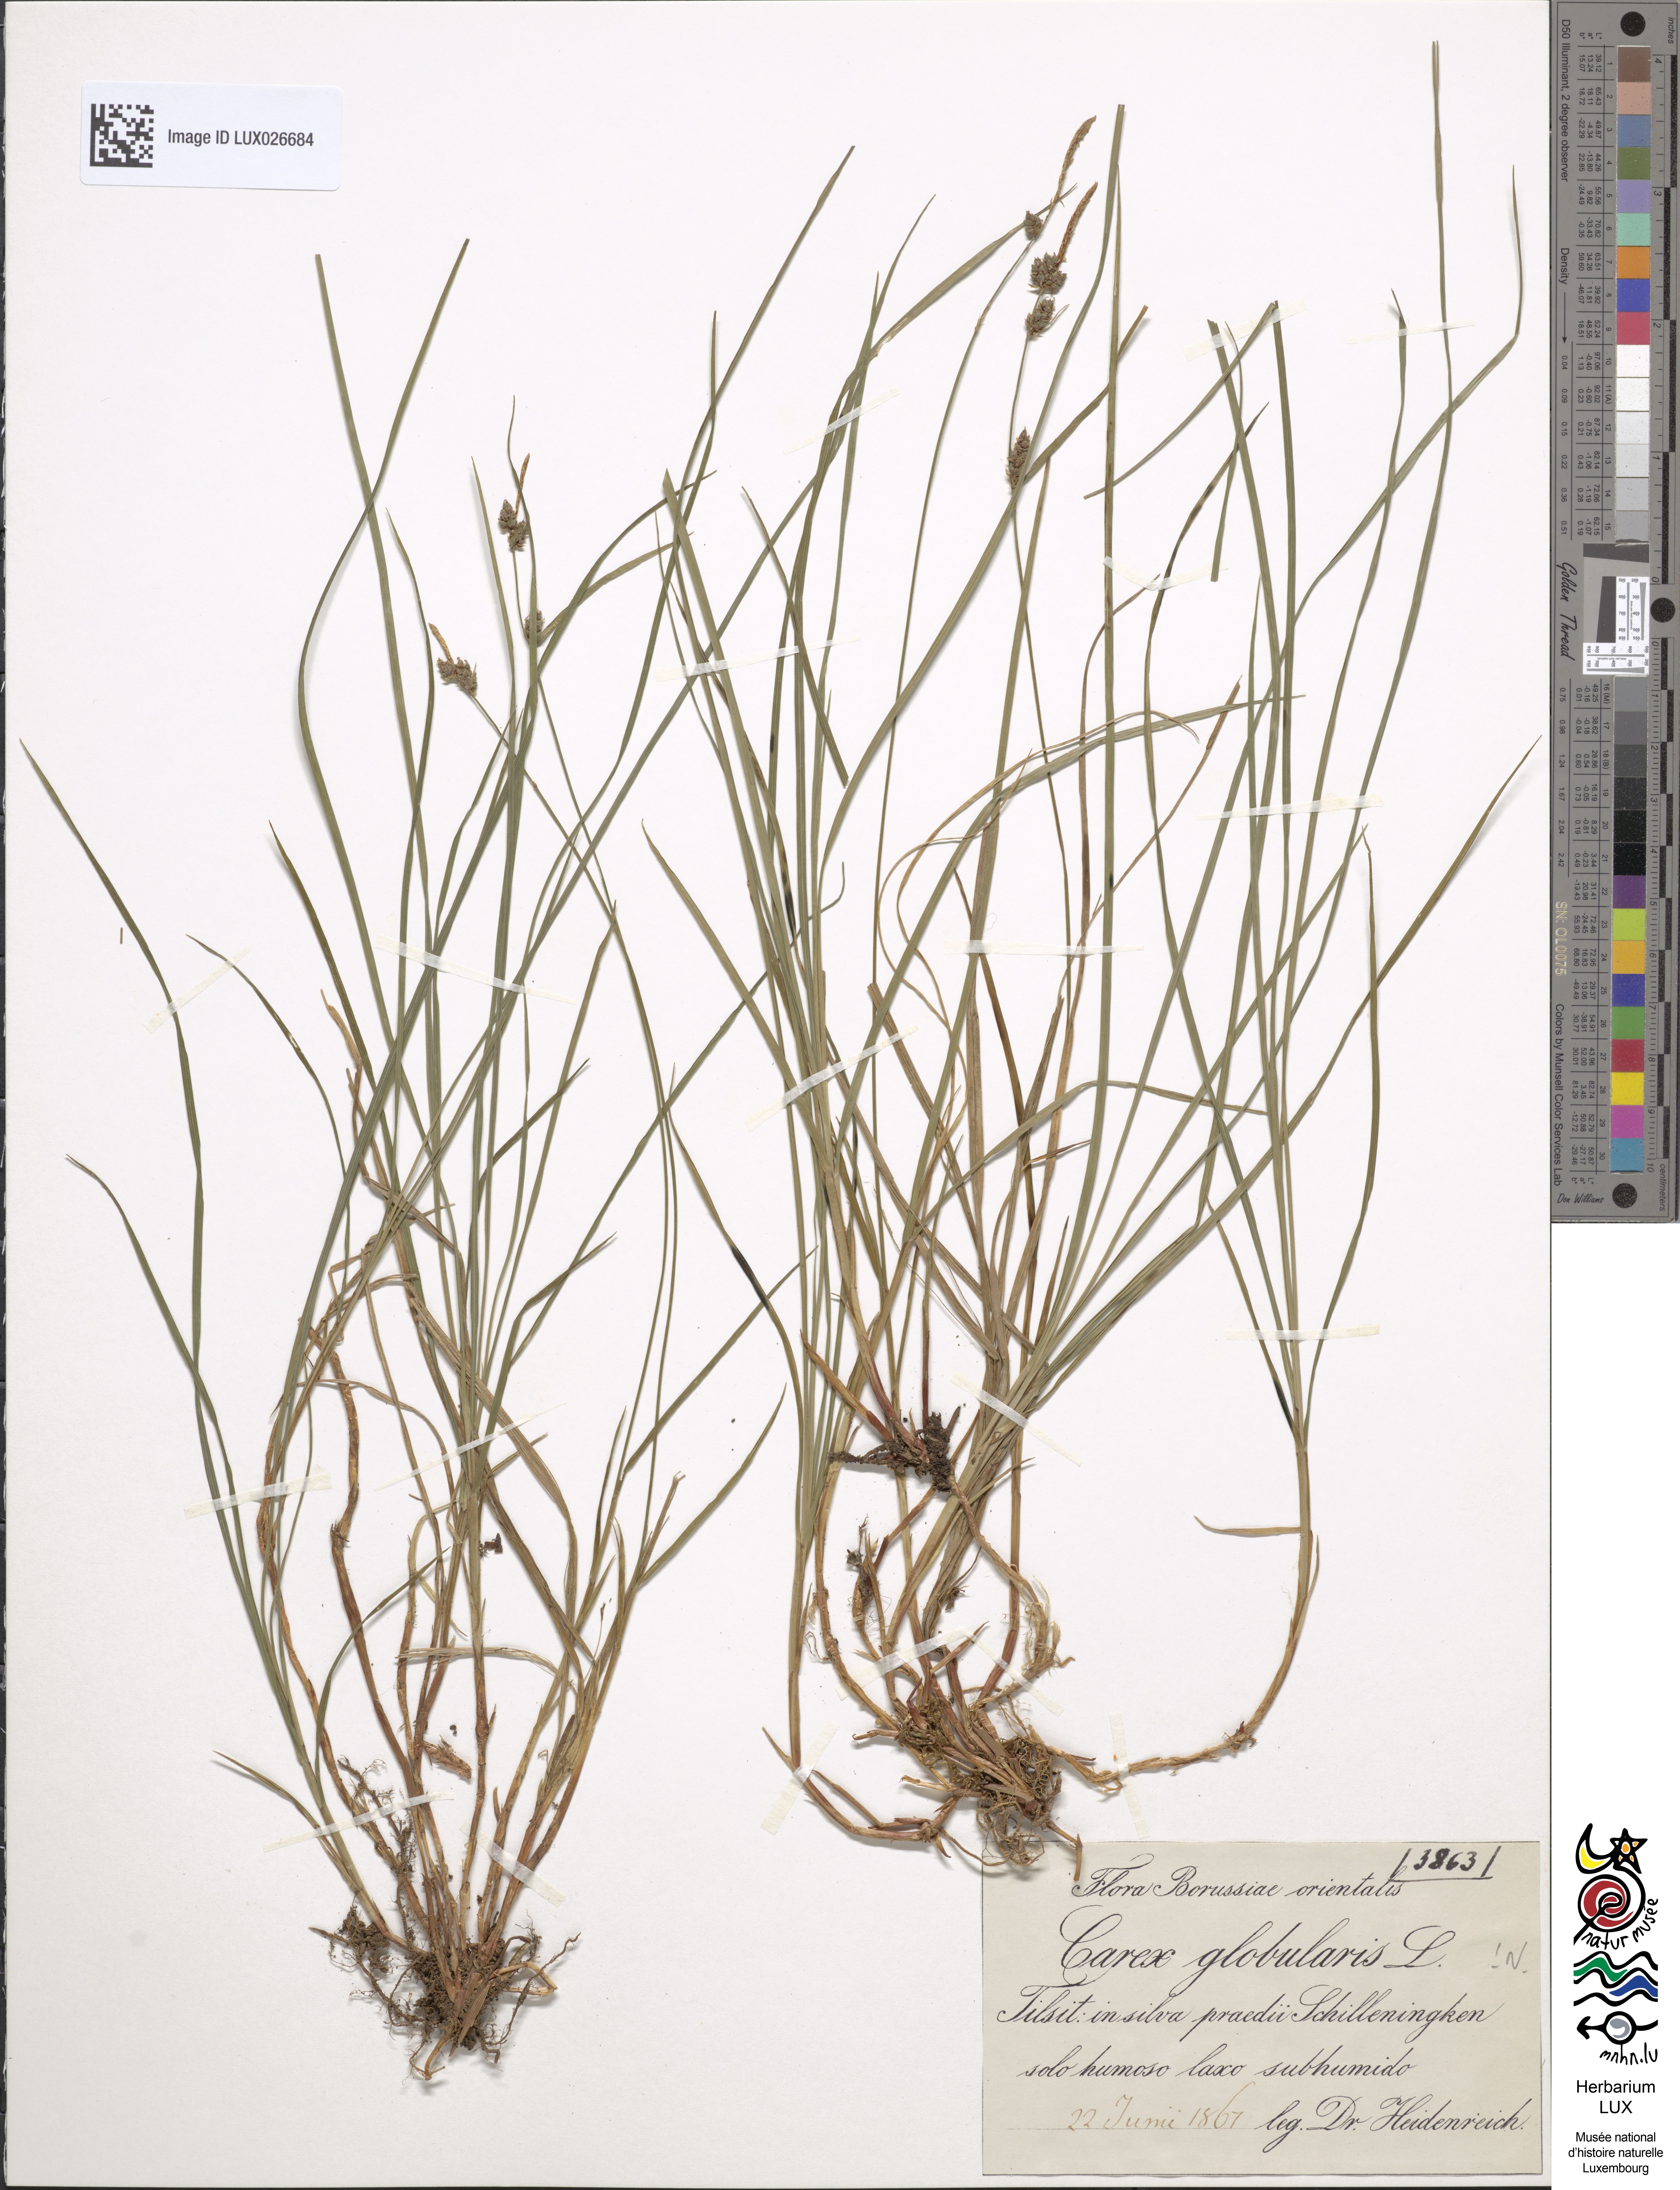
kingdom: Plantae
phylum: Tracheophyta
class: Liliopsida
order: Poales
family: Cyperaceae
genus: Carex
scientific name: Carex globularis
